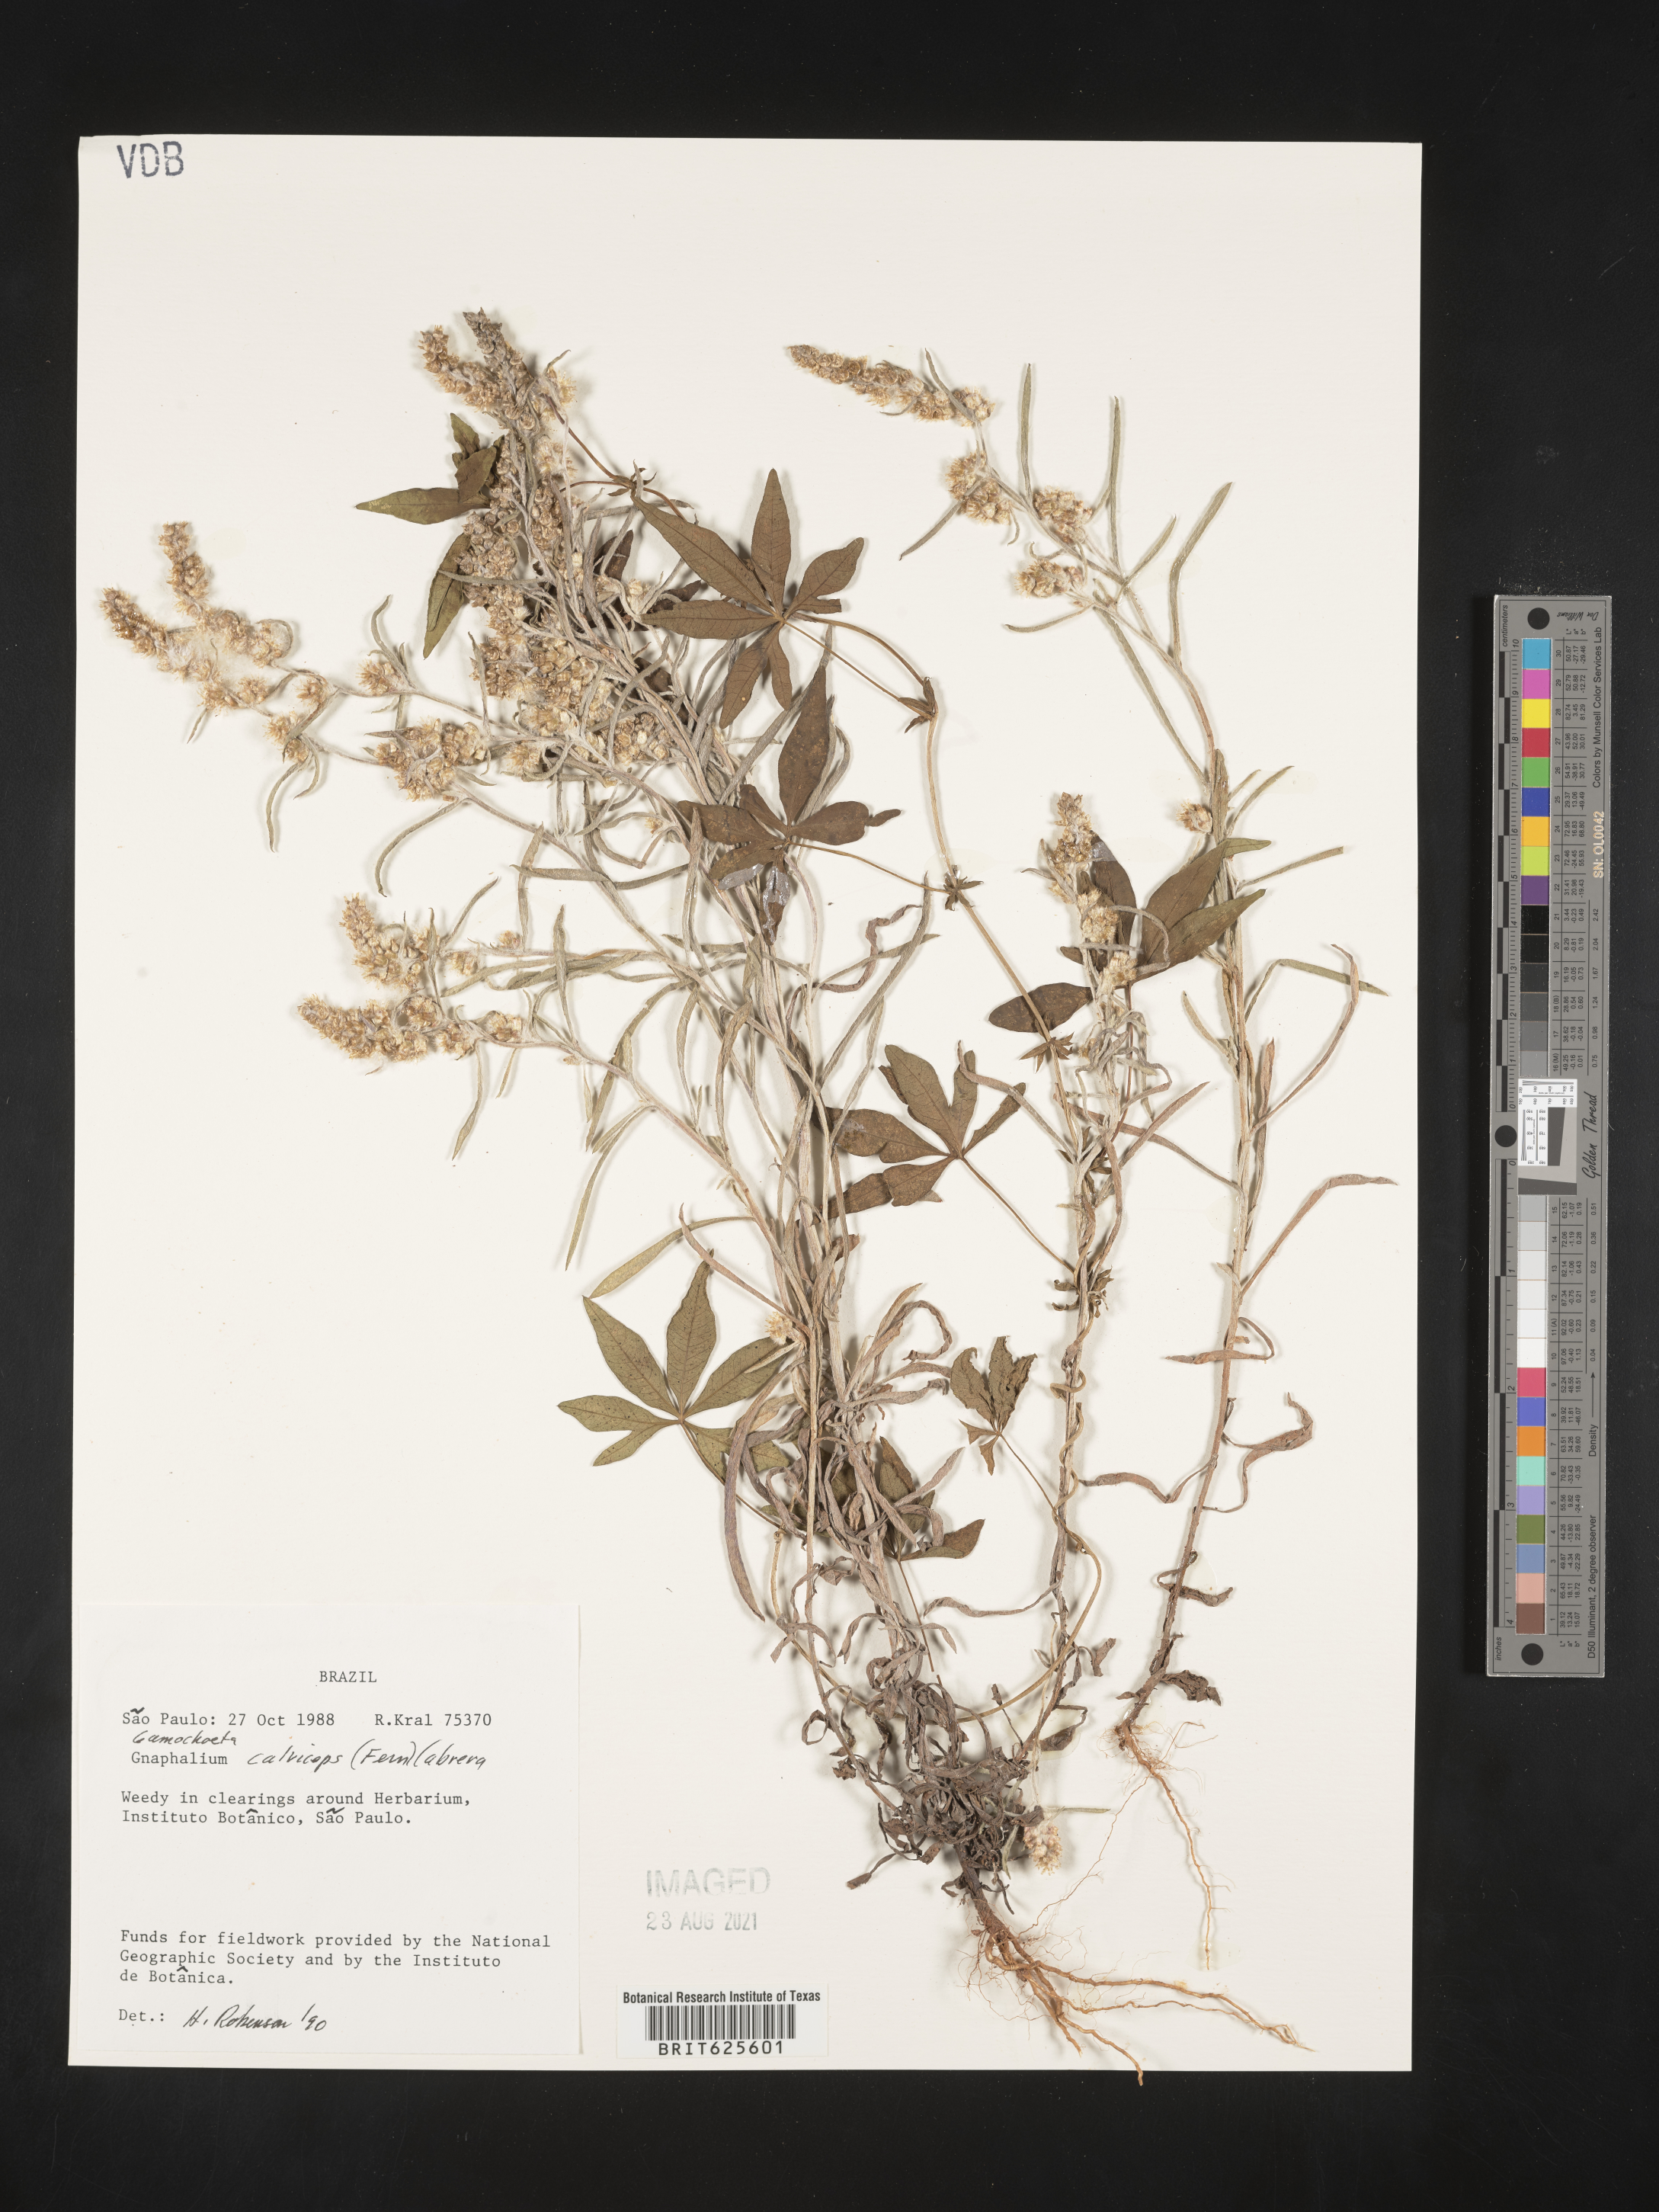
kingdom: Plantae
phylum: Tracheophyta
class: Magnoliopsida
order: Asterales
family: Asteraceae
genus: Gamochaeta
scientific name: Gamochaeta calviceps
